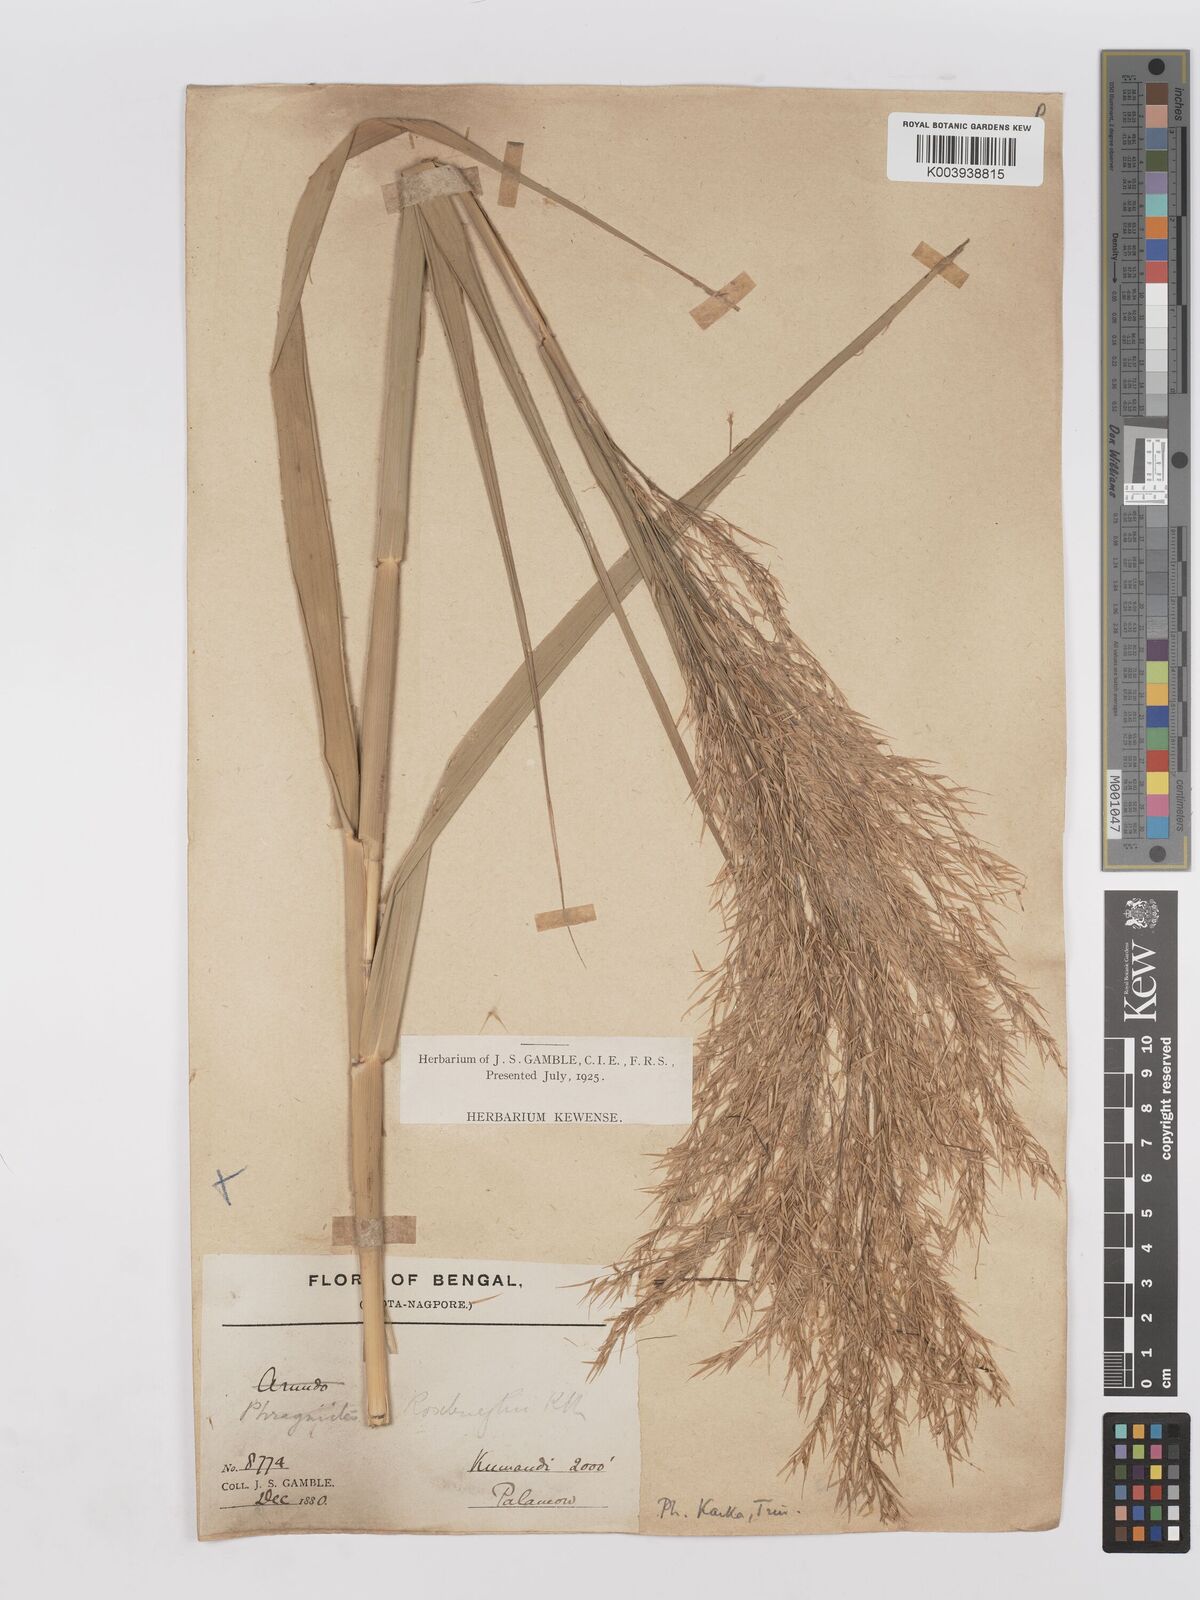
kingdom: Plantae
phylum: Tracheophyta
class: Liliopsida
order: Poales
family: Poaceae
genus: Phragmites
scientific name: Phragmites karka
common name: Tropical reed
